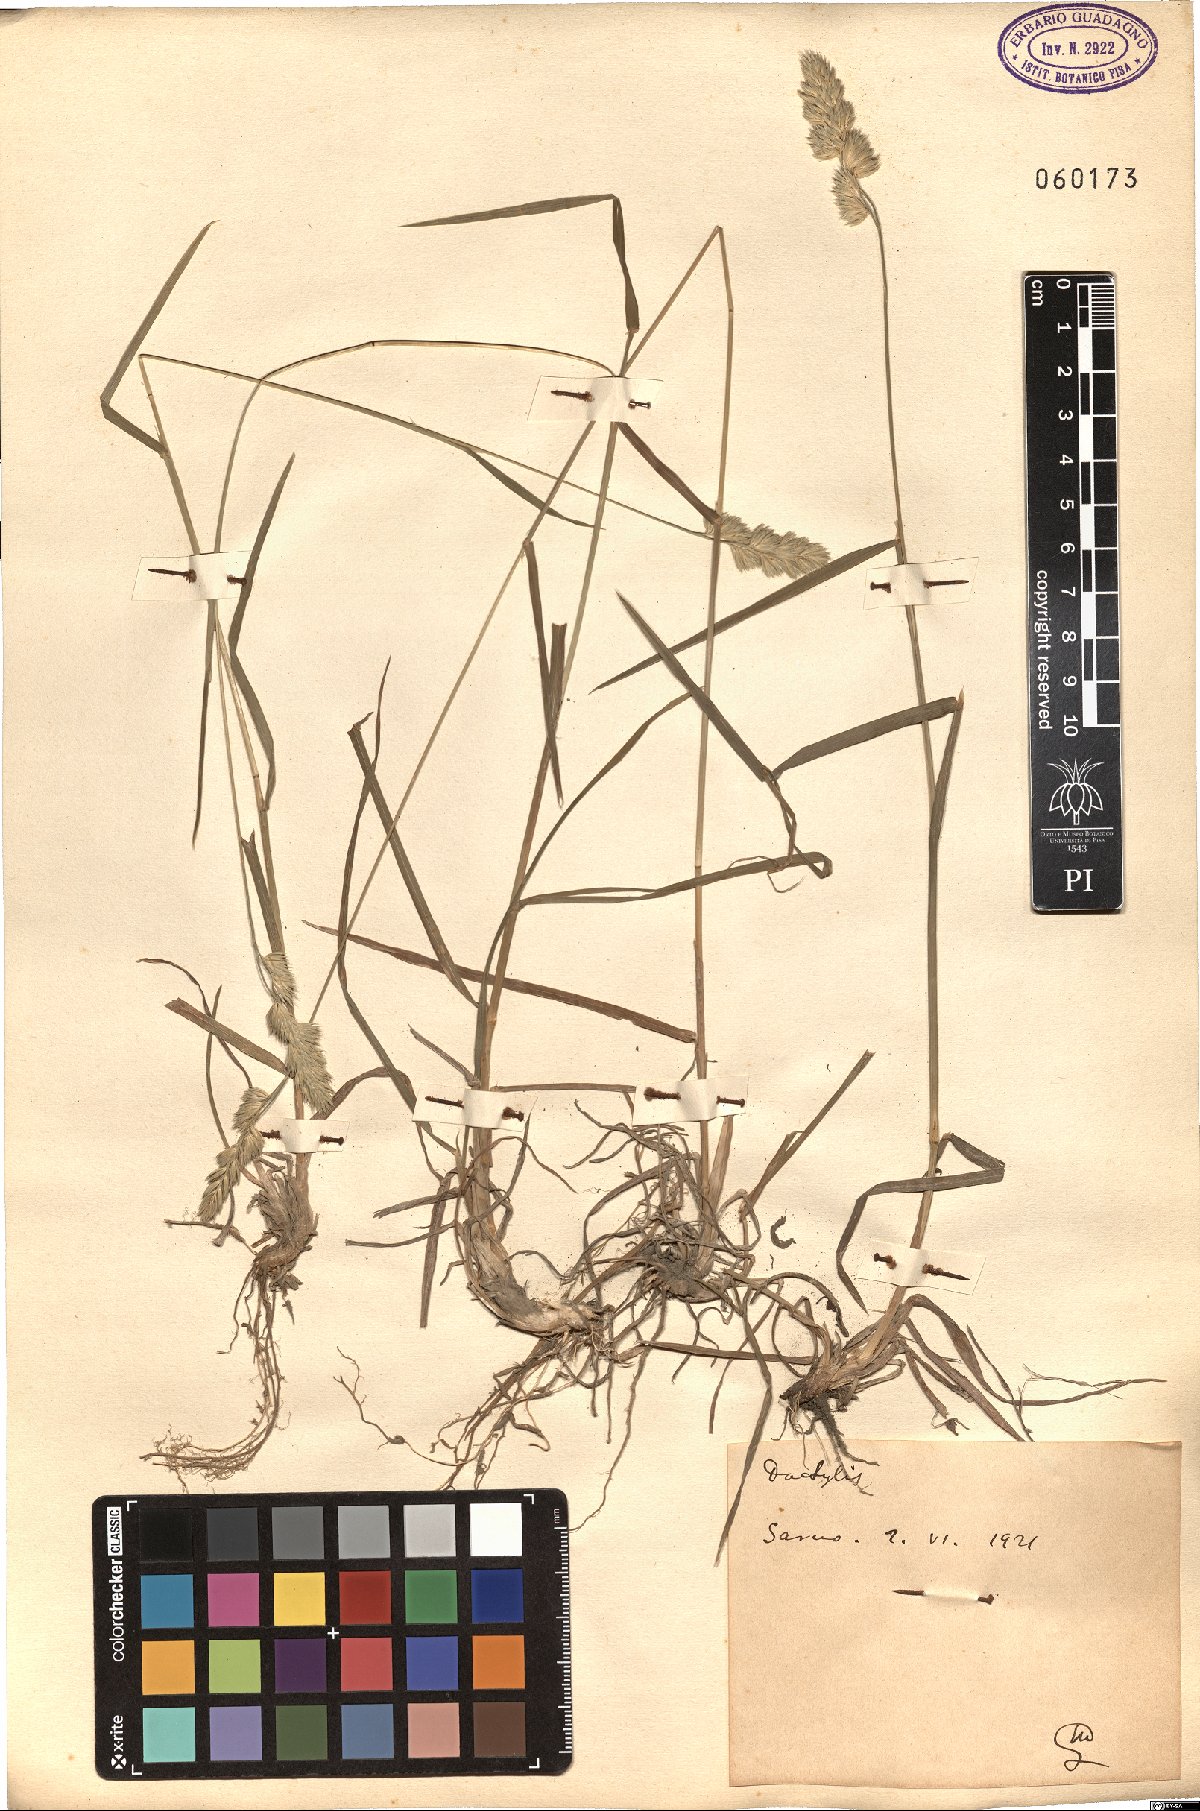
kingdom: Plantae
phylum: Tracheophyta
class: Liliopsida
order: Poales
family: Poaceae
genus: Dactylis
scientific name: Dactylis
